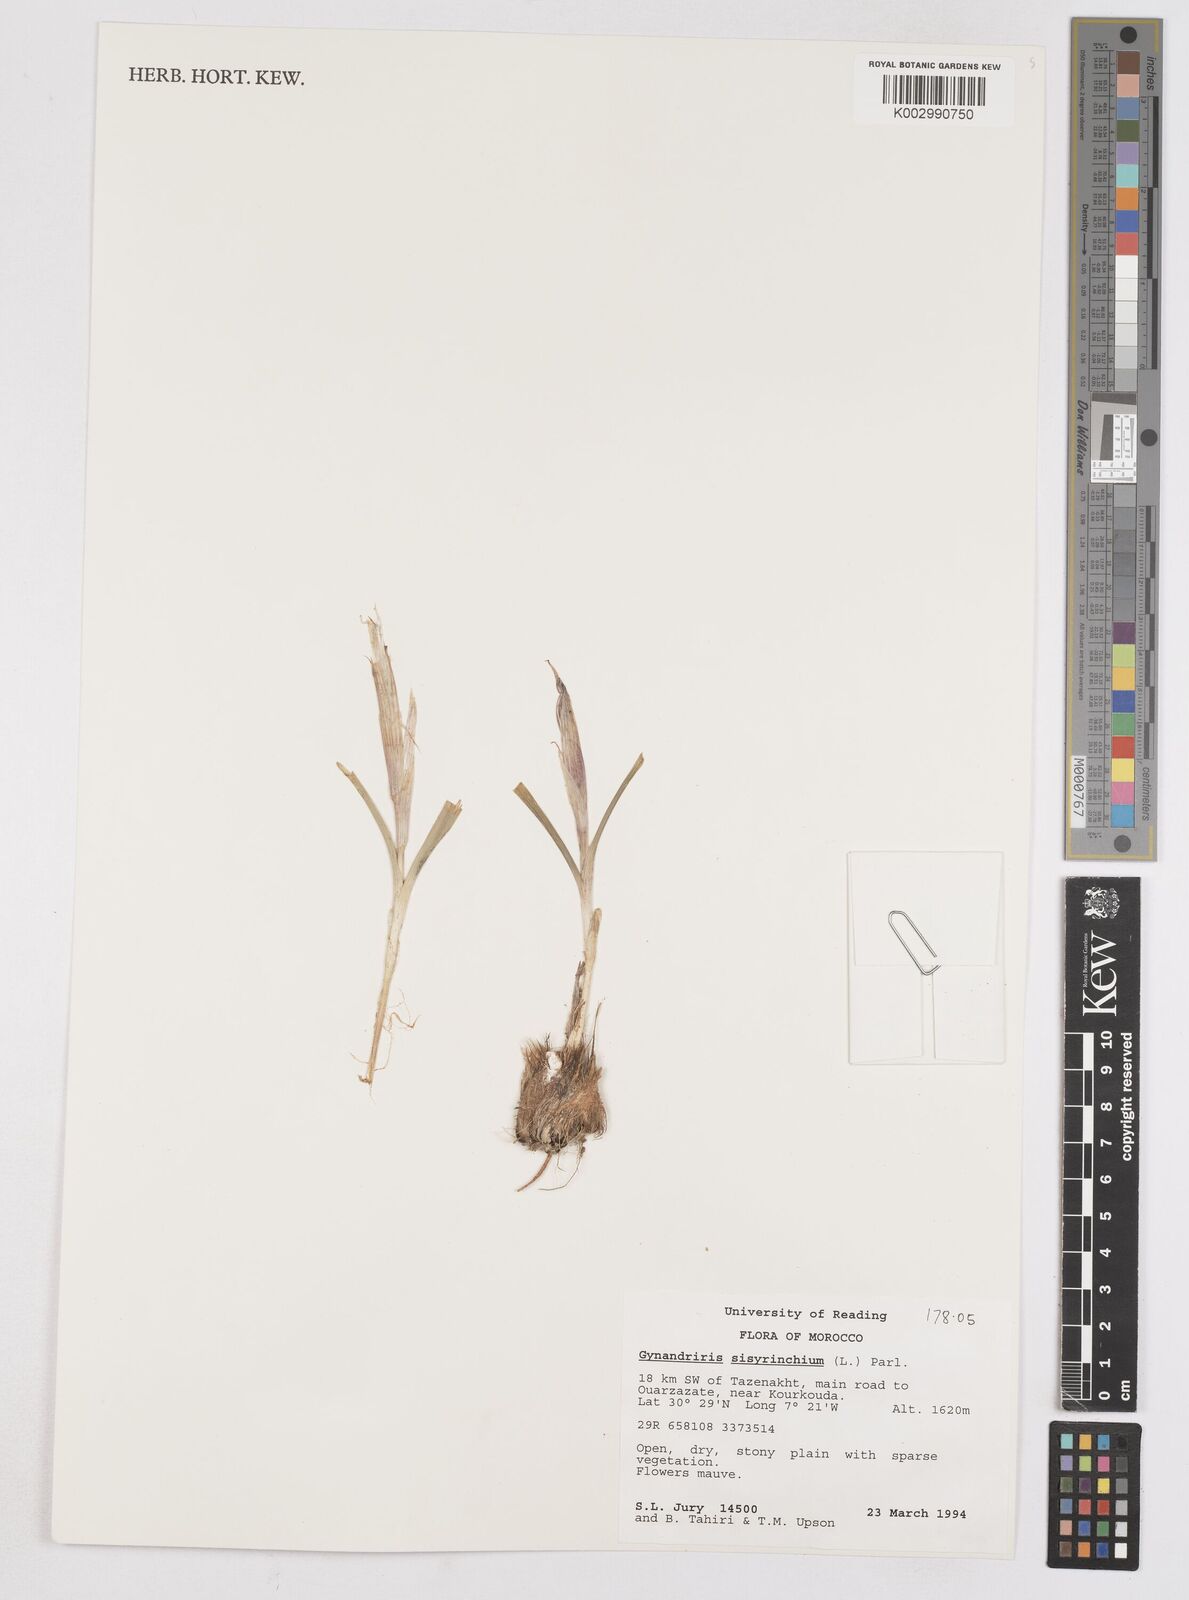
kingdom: Plantae
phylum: Tracheophyta
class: Liliopsida
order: Asparagales
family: Iridaceae
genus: Moraea
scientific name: Moraea sisyrinchium
